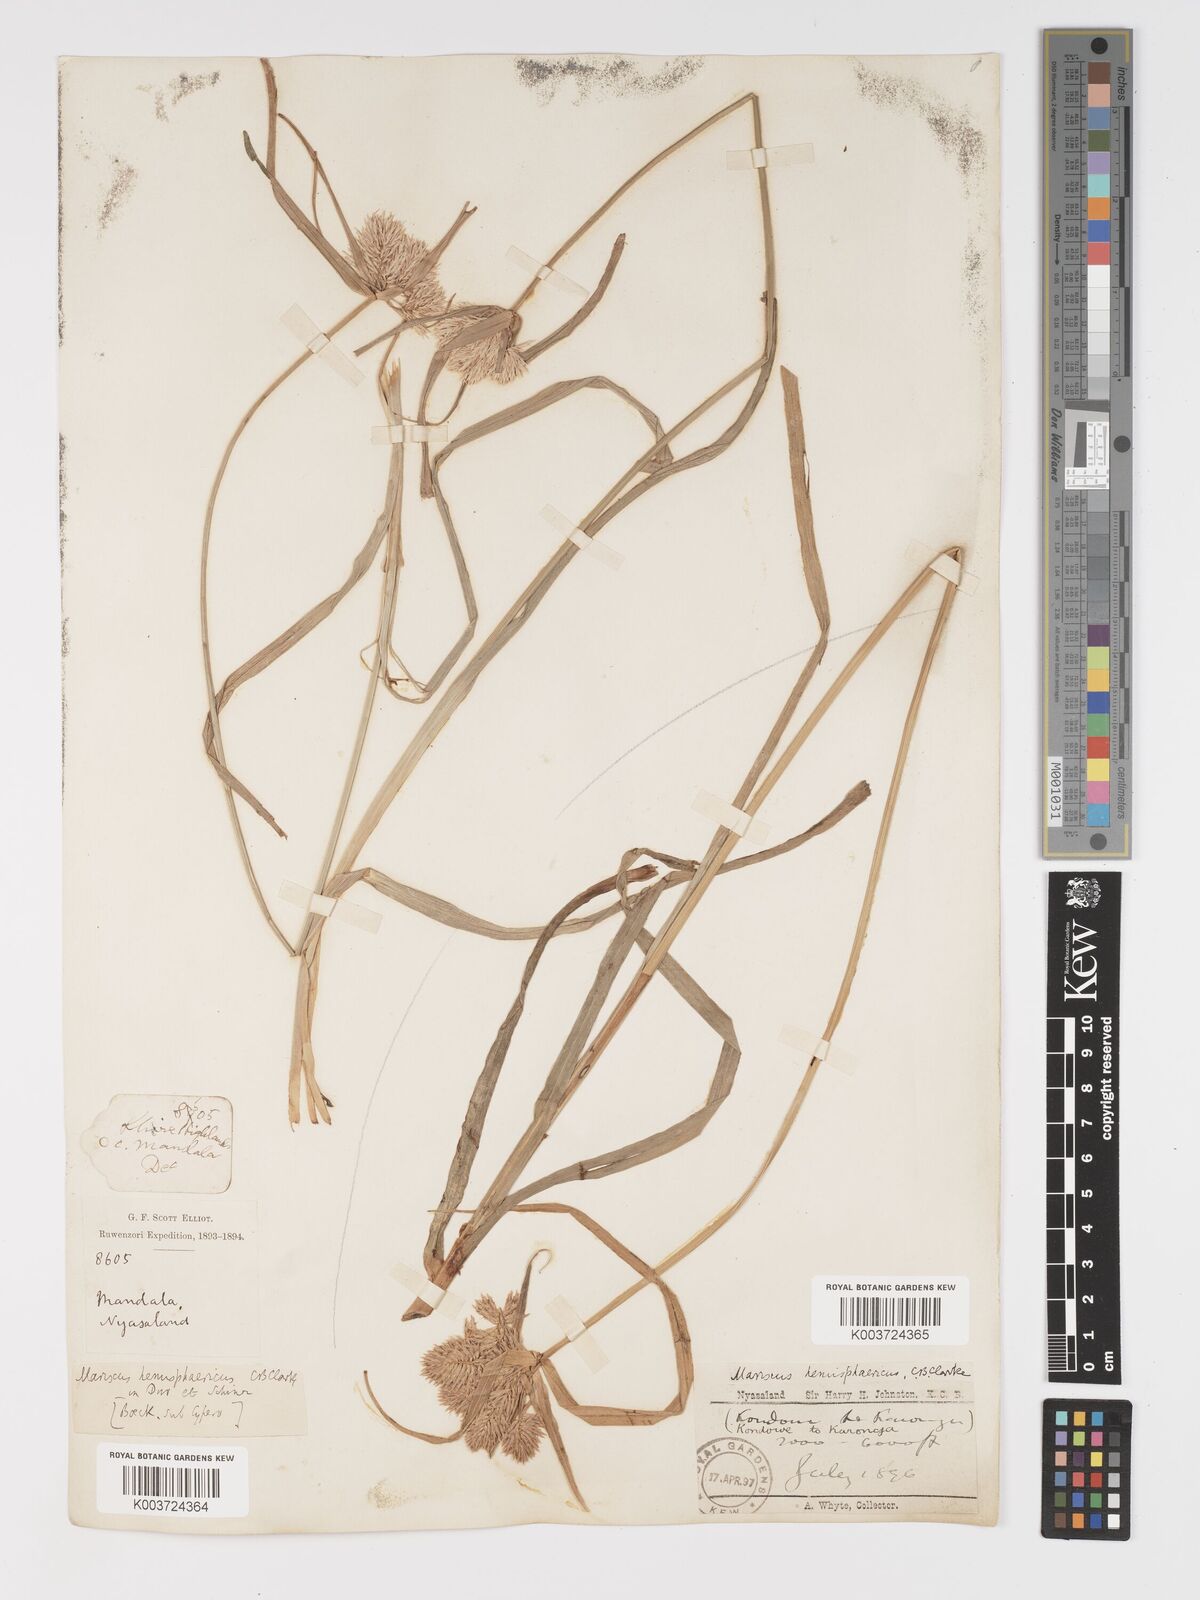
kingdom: Plantae
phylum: Tracheophyta
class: Liliopsida
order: Poales
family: Cyperaceae
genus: Cyperus
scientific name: Cyperus hemisphaericus
